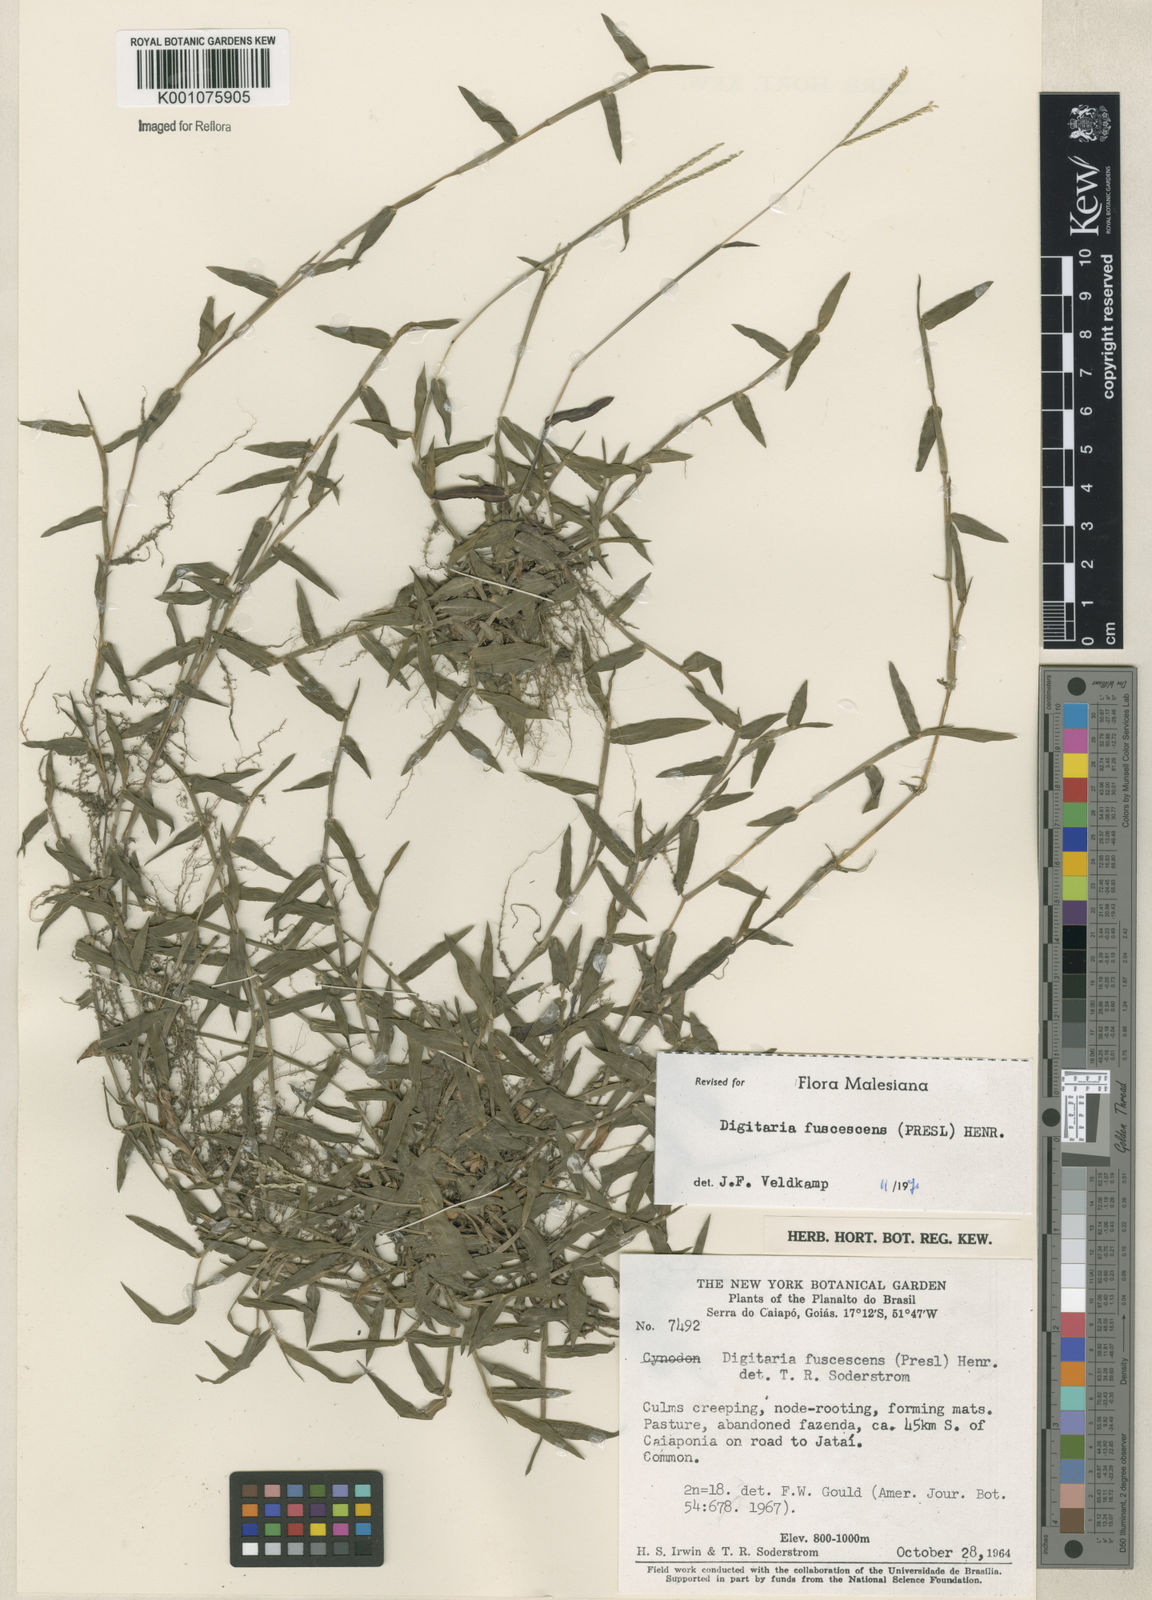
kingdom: Plantae
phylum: Tracheophyta
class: Liliopsida
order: Poales
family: Poaceae
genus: Digitaria
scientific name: Digitaria fuscescens
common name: Yellow crabgrass
